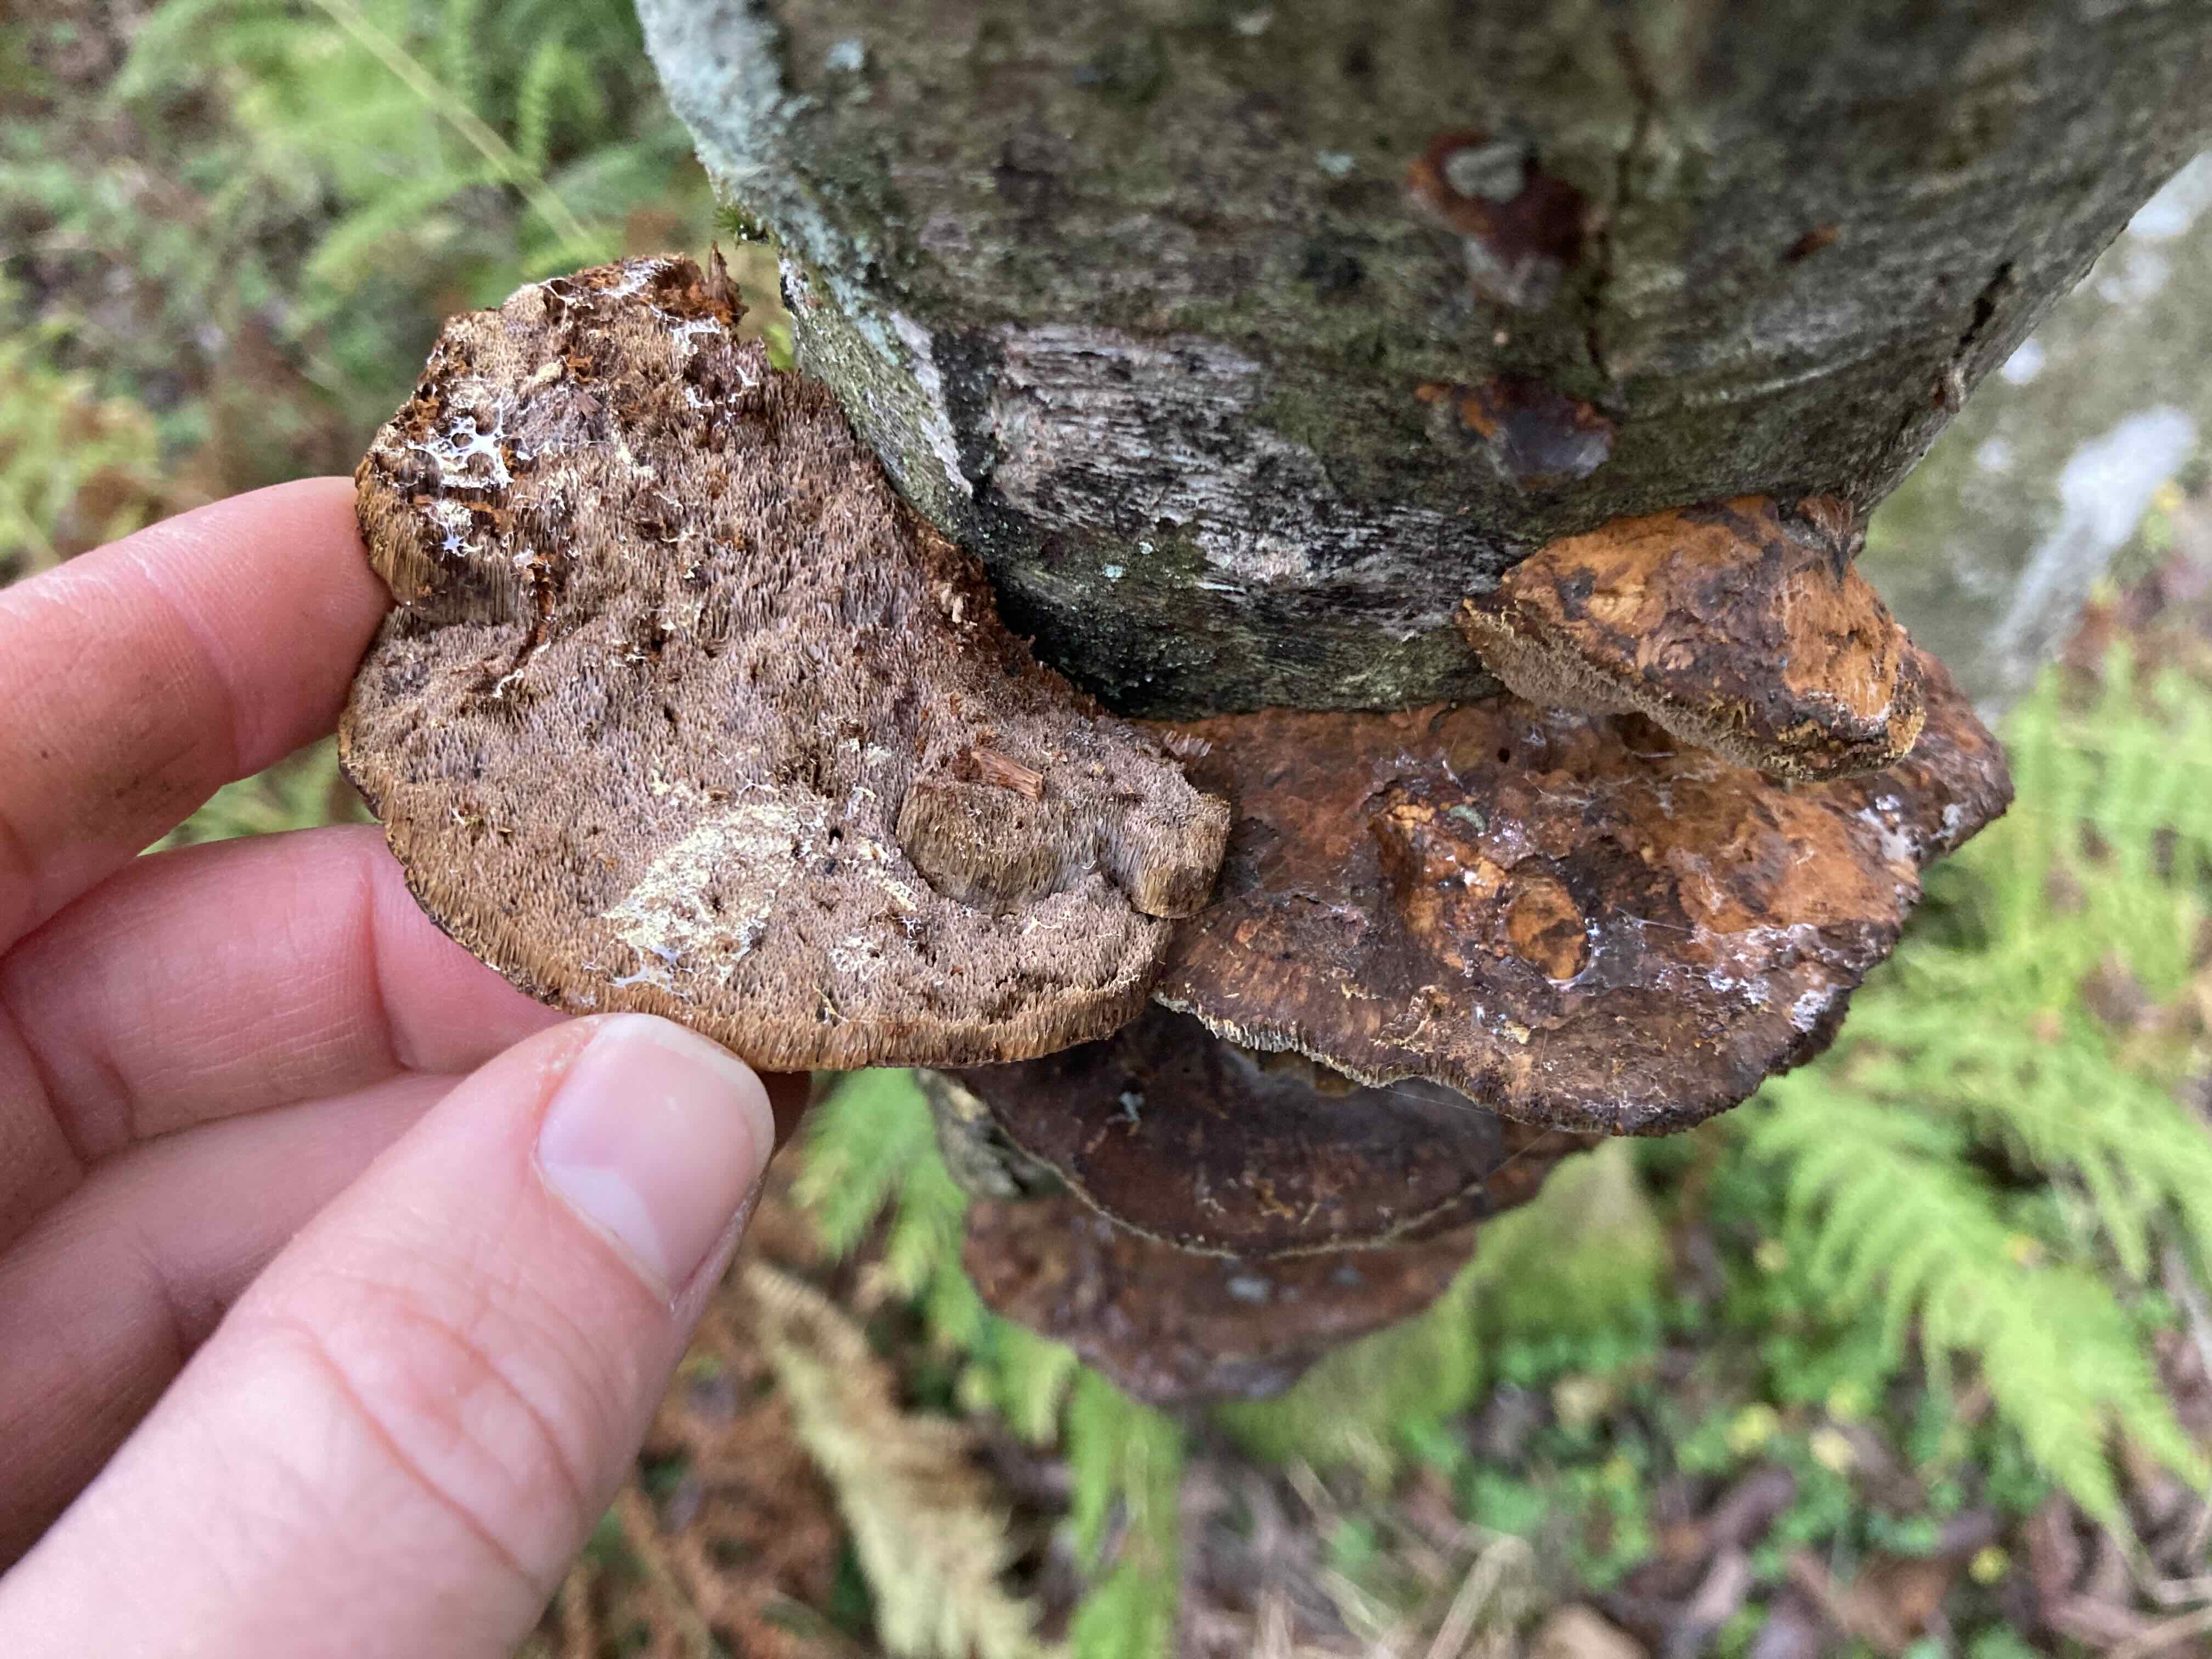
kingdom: Fungi
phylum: Basidiomycota
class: Agaricomycetes
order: Hymenochaetales
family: Hymenochaetaceae
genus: Xanthoporia
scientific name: Xanthoporia radiata
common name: elle-spejlporesvamp
